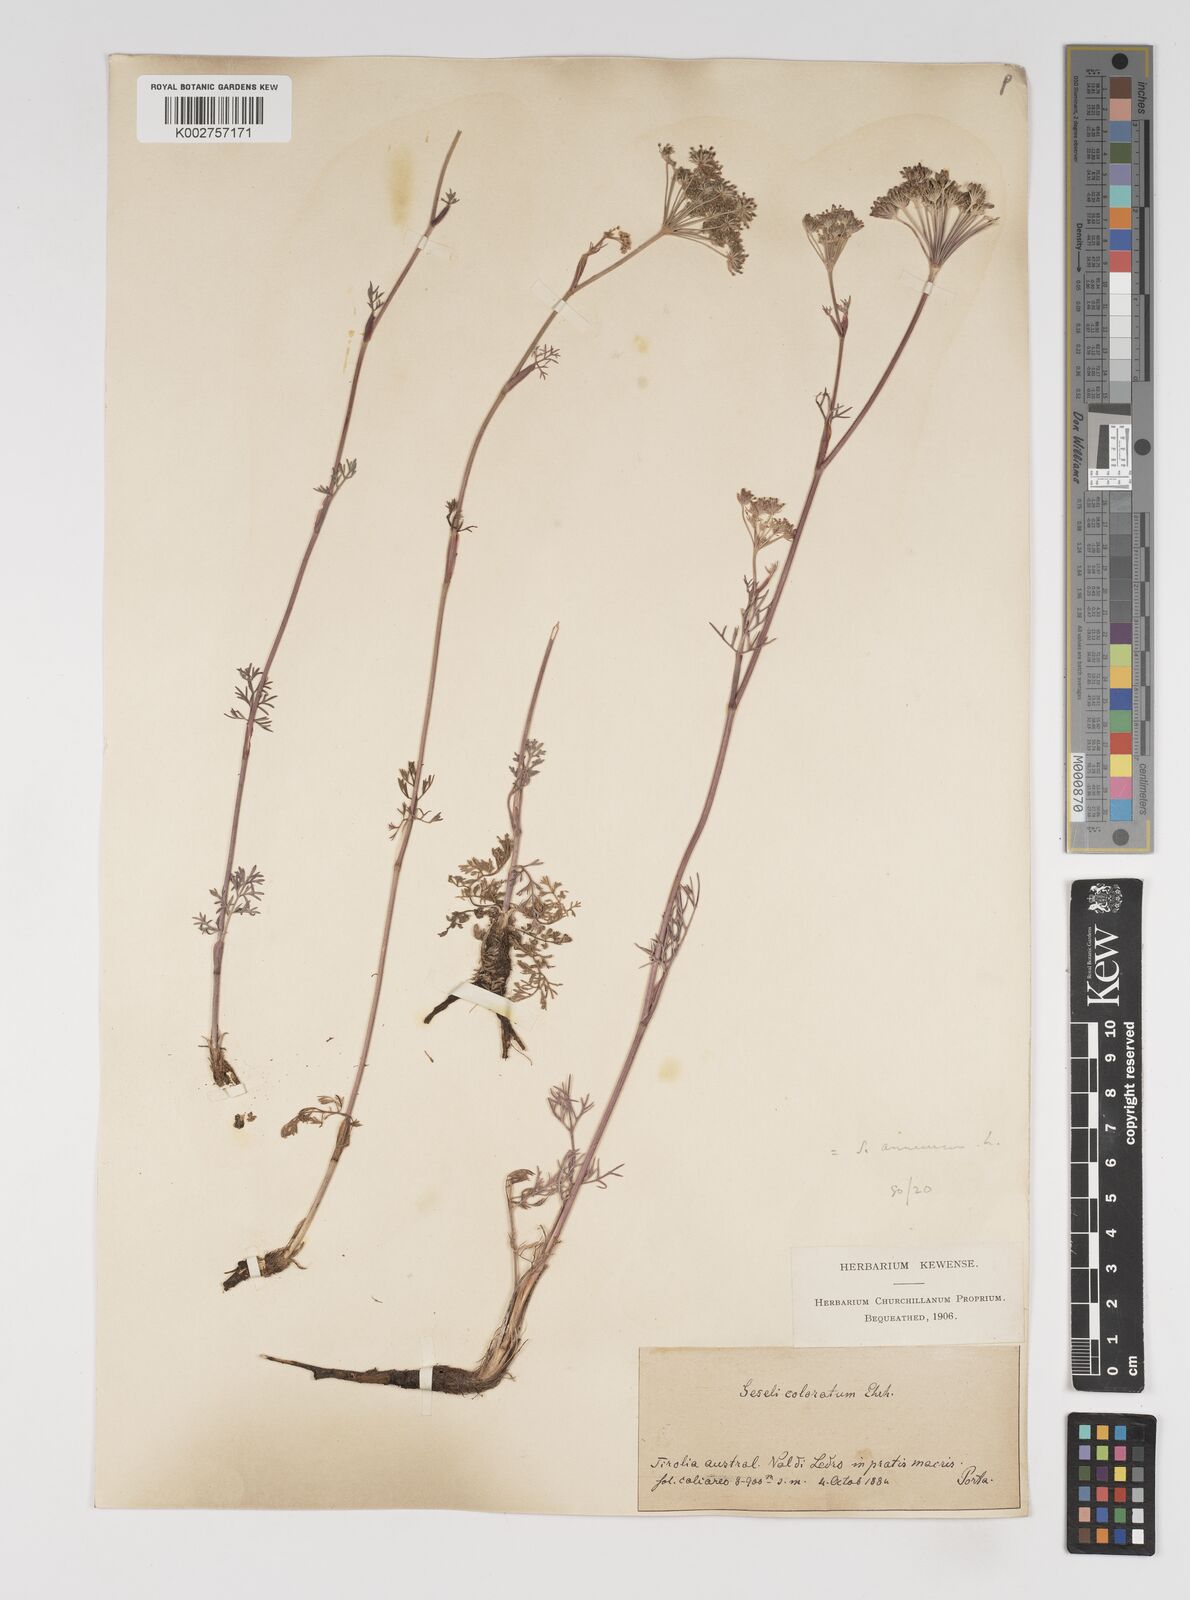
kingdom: Plantae
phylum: Tracheophyta
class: Magnoliopsida
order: Apiales
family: Apiaceae
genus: Seseli
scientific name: Seseli annuum
